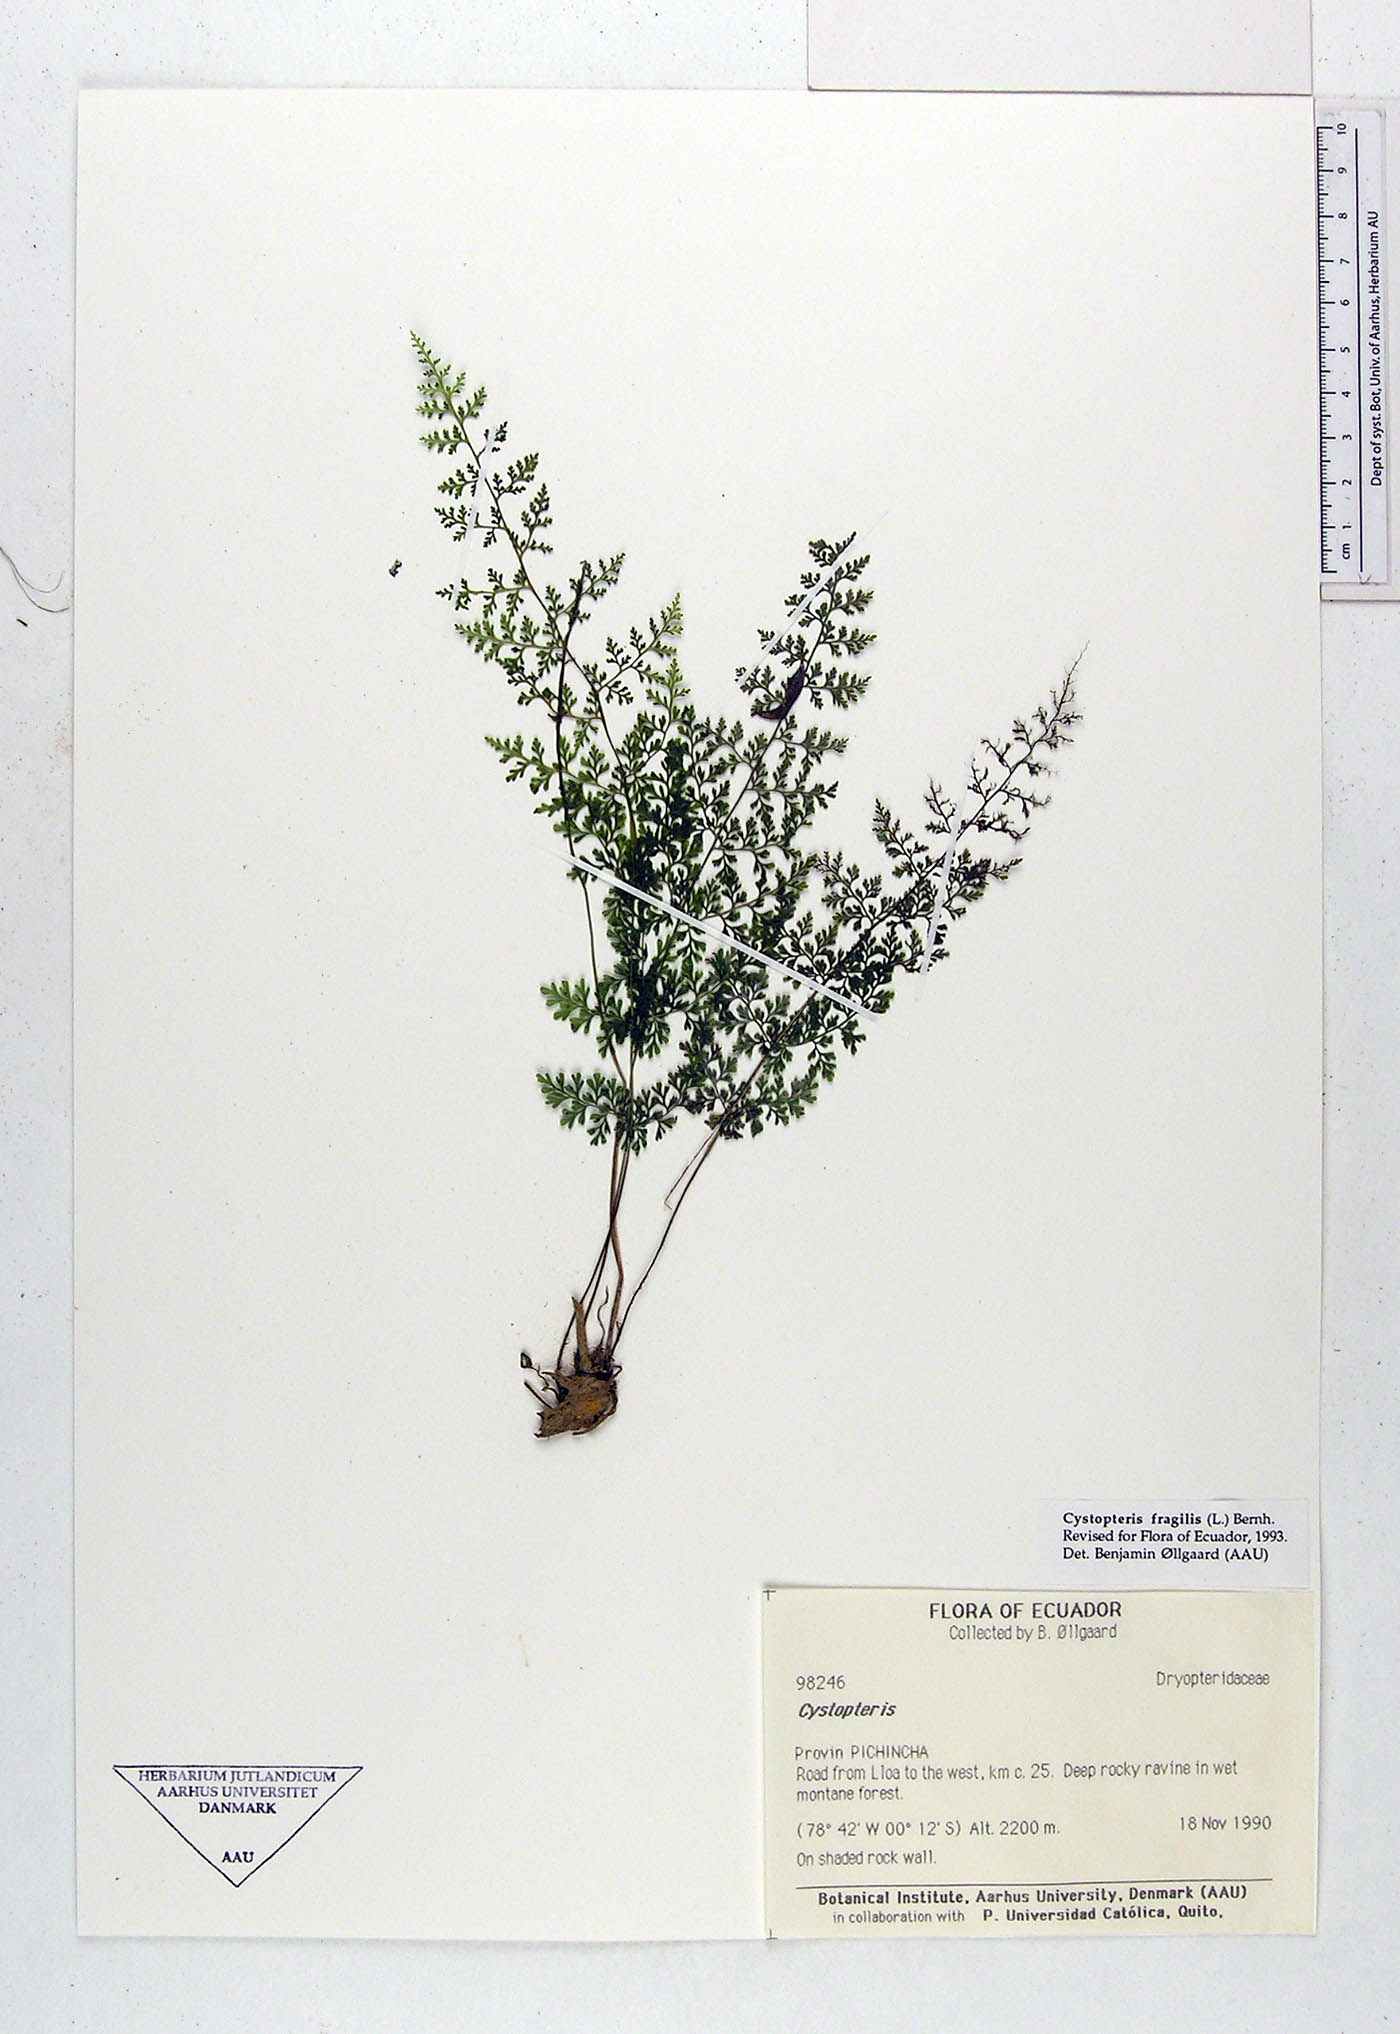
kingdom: Plantae
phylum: Tracheophyta
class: Polypodiopsida
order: Polypodiales
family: Cystopteridaceae
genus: Cystopteris
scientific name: Cystopteris fragilis
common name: Brittle bladder fern
